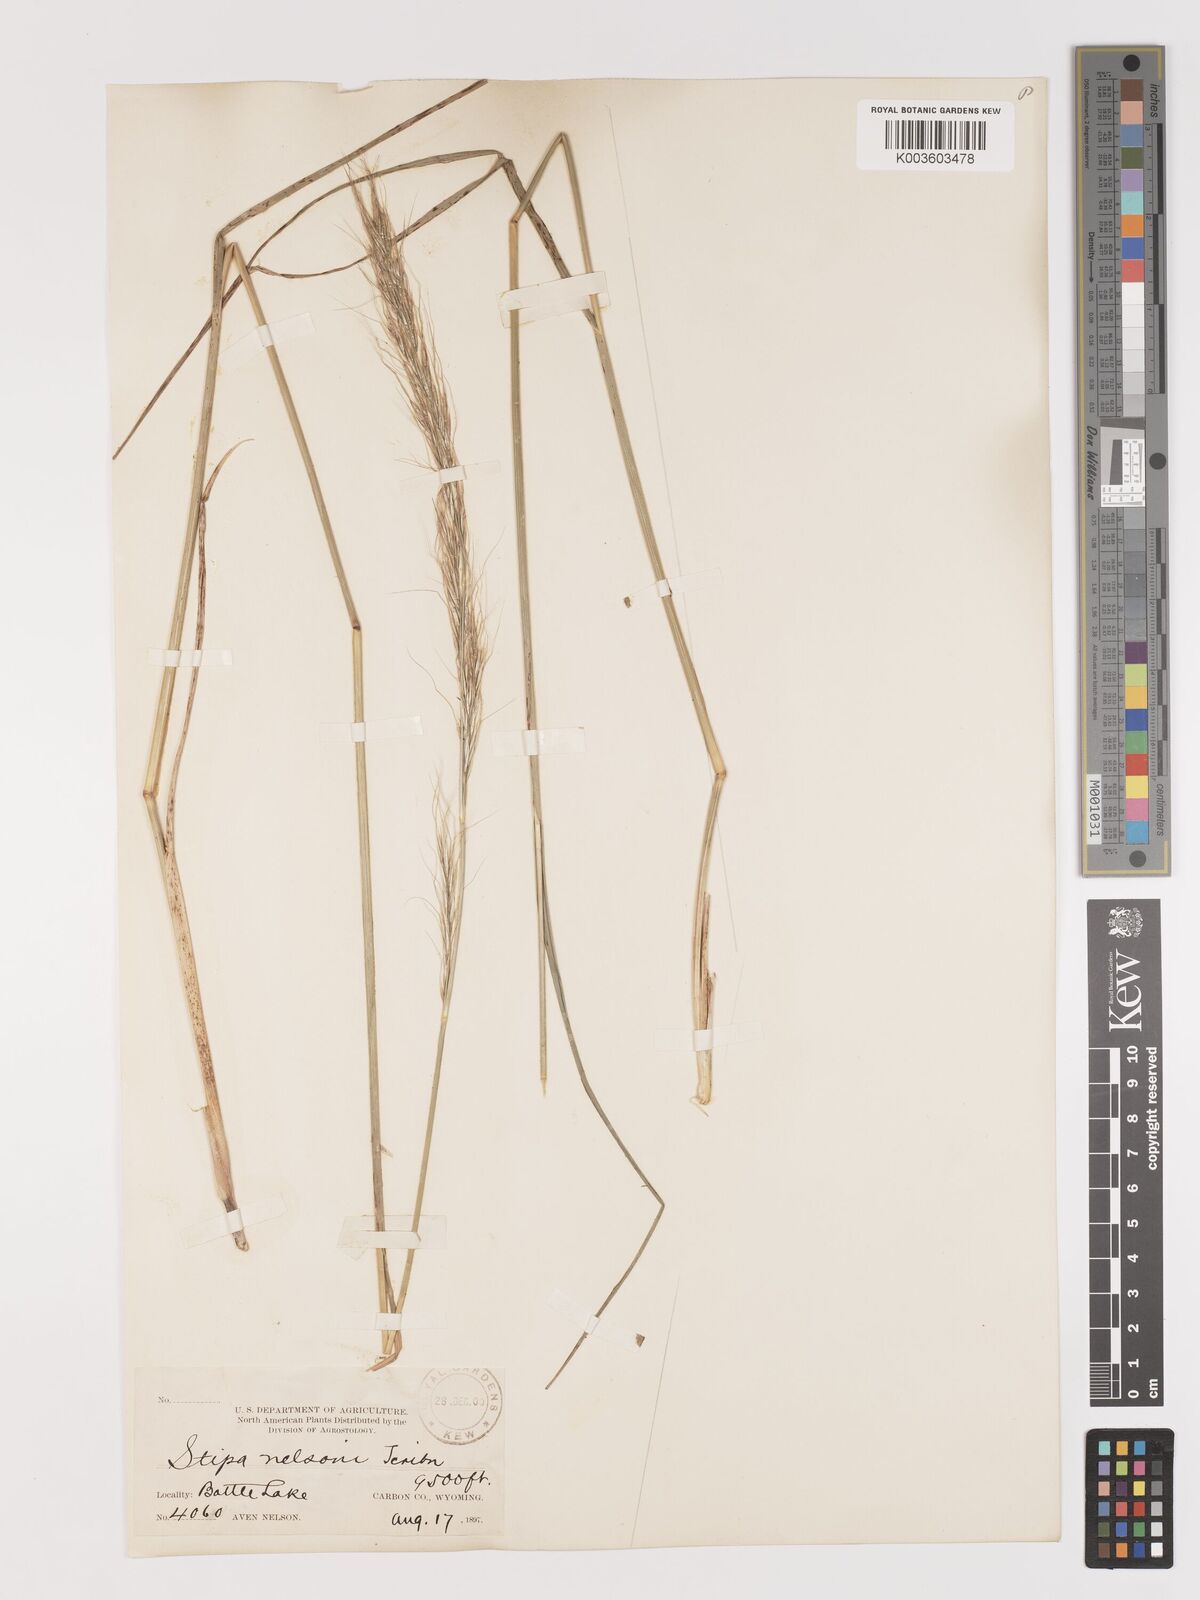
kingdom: Plantae
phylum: Tracheophyta
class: Liliopsida
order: Poales
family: Poaceae
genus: Eriocoma
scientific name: Eriocoma nelsonii
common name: Nelson's needlegrass
